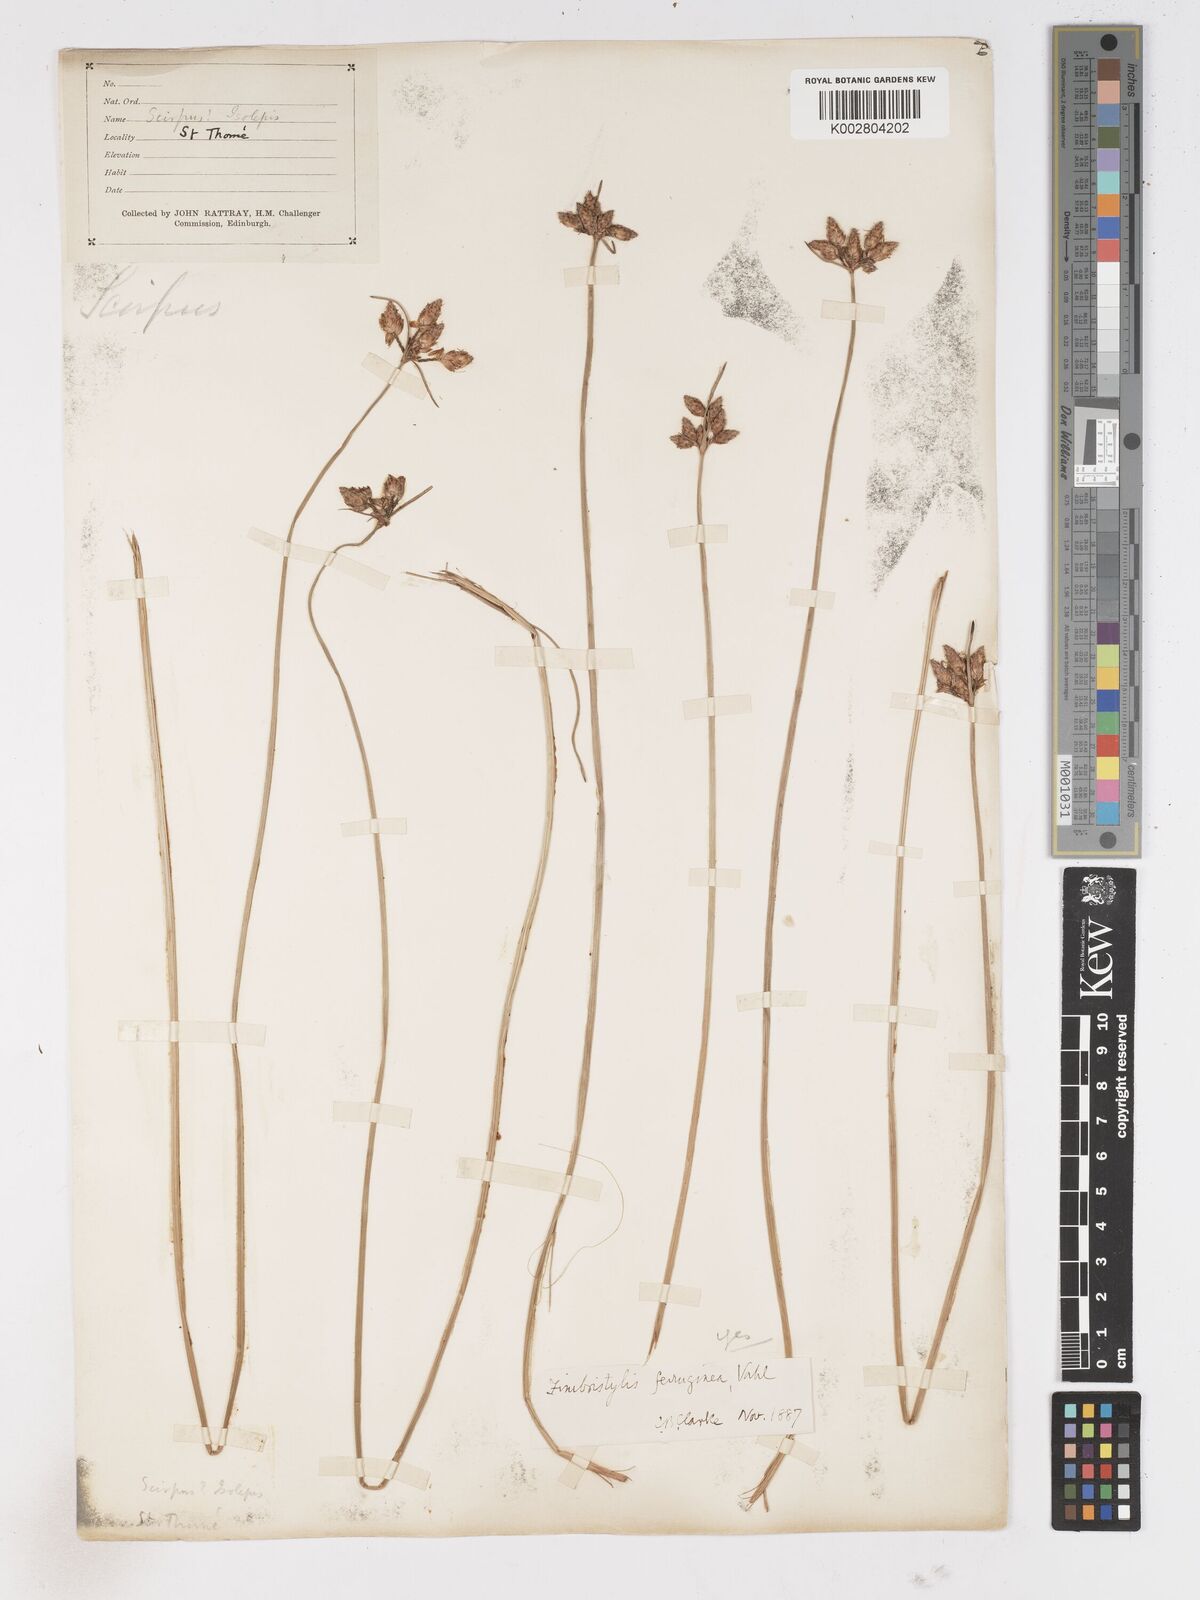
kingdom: Plantae
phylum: Tracheophyta
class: Liliopsida
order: Poales
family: Cyperaceae
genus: Fimbristylis
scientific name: Fimbristylis ferruginea
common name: West indian fimbry
